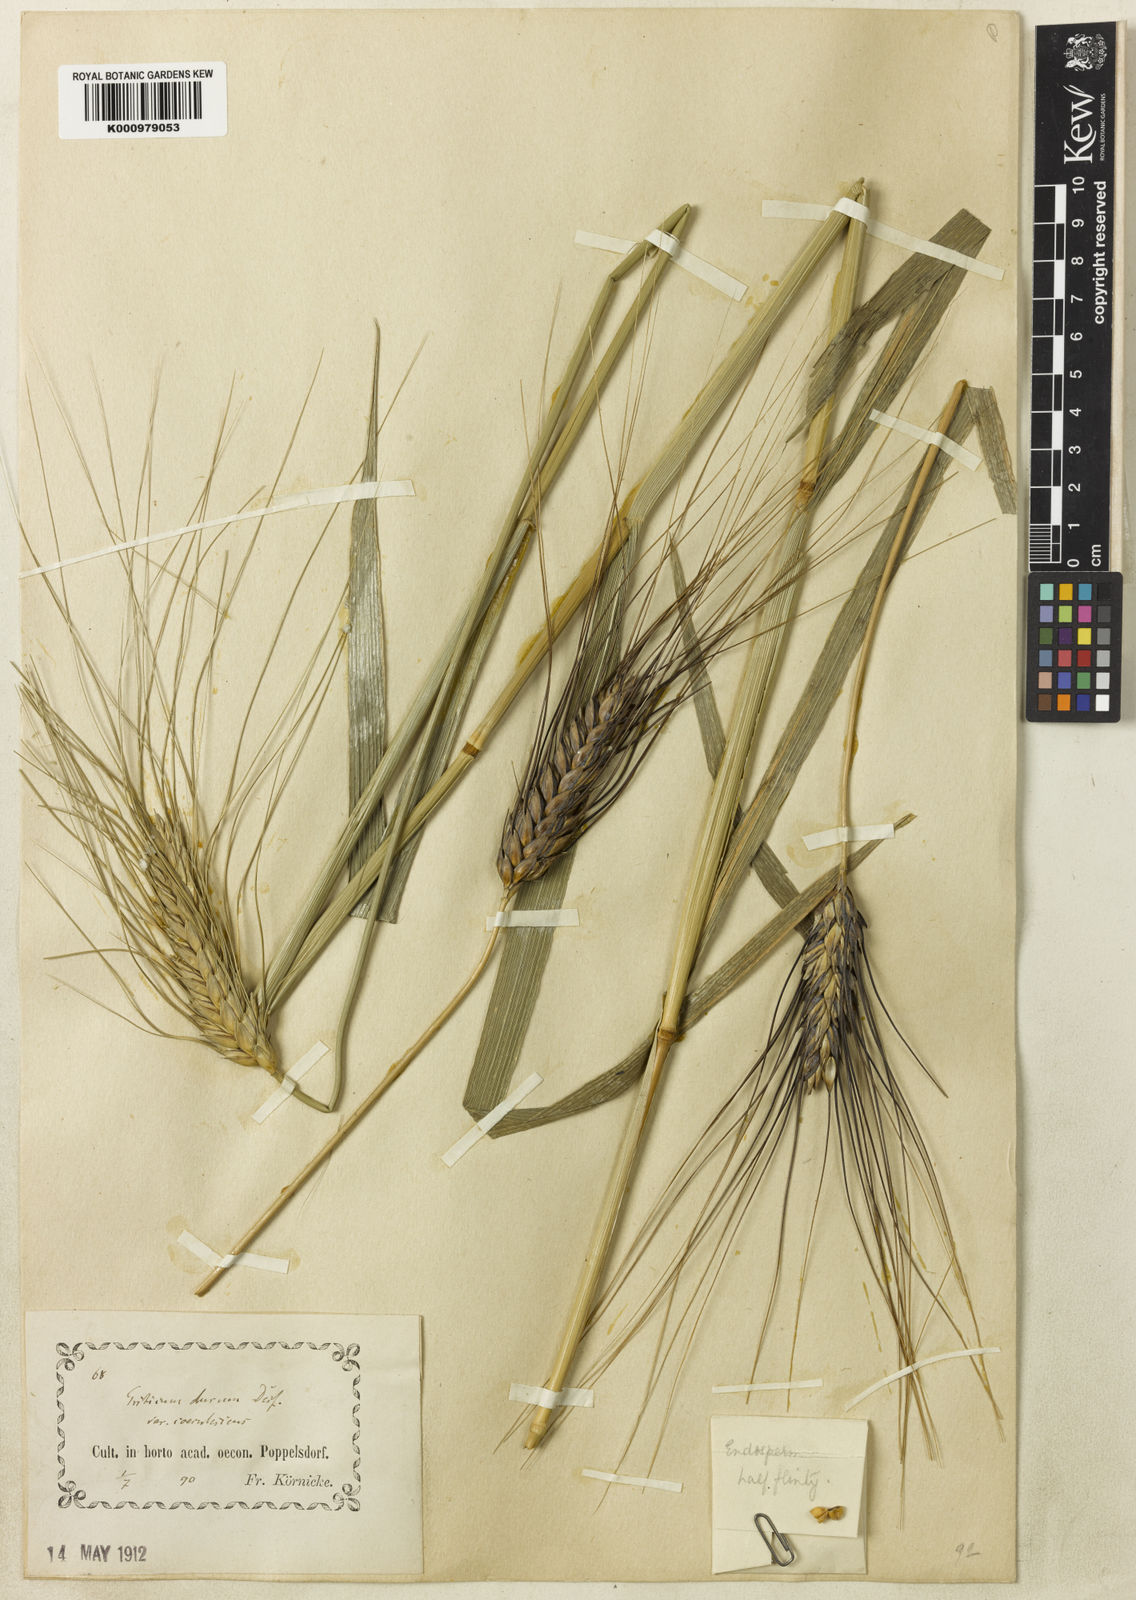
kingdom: Plantae
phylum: Tracheophyta
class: Liliopsida
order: Poales
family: Poaceae
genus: Triticum
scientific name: Triticum turgidum
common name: Rivet wheat
